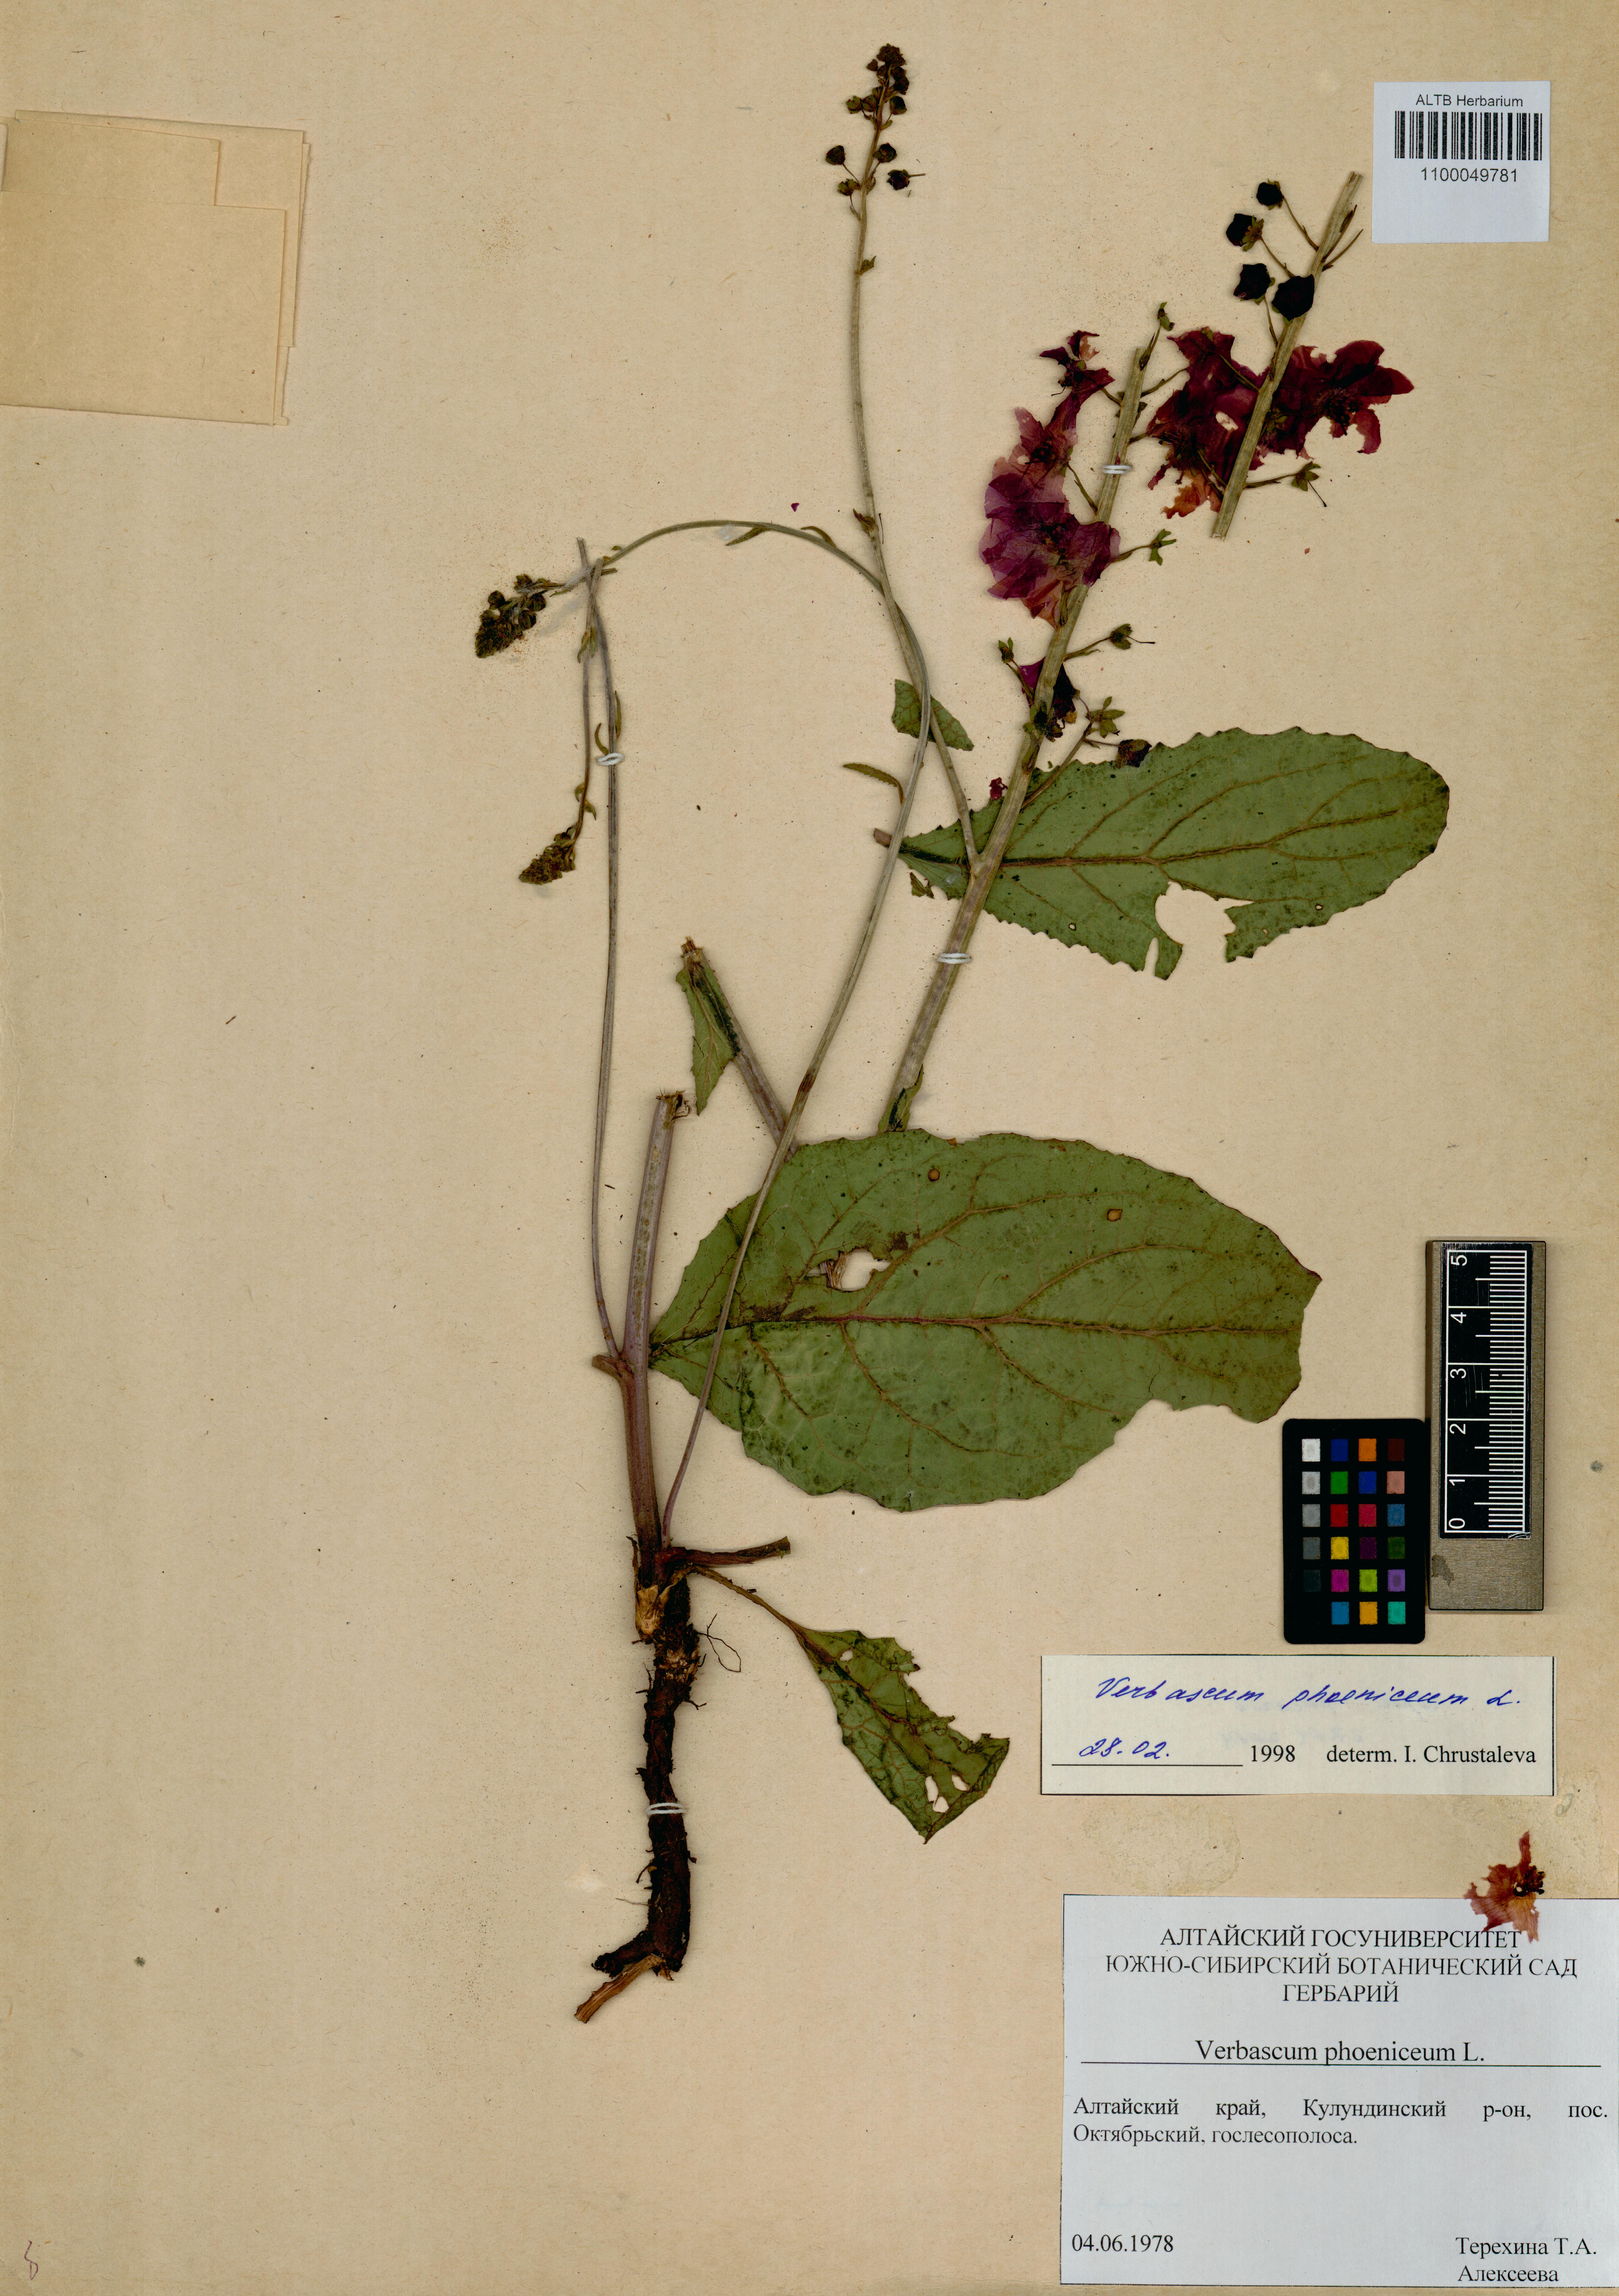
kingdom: Plantae
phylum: Tracheophyta
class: Magnoliopsida
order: Lamiales
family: Scrophulariaceae
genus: Verbascum
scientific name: Verbascum phoeniceum
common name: Purple mullein
